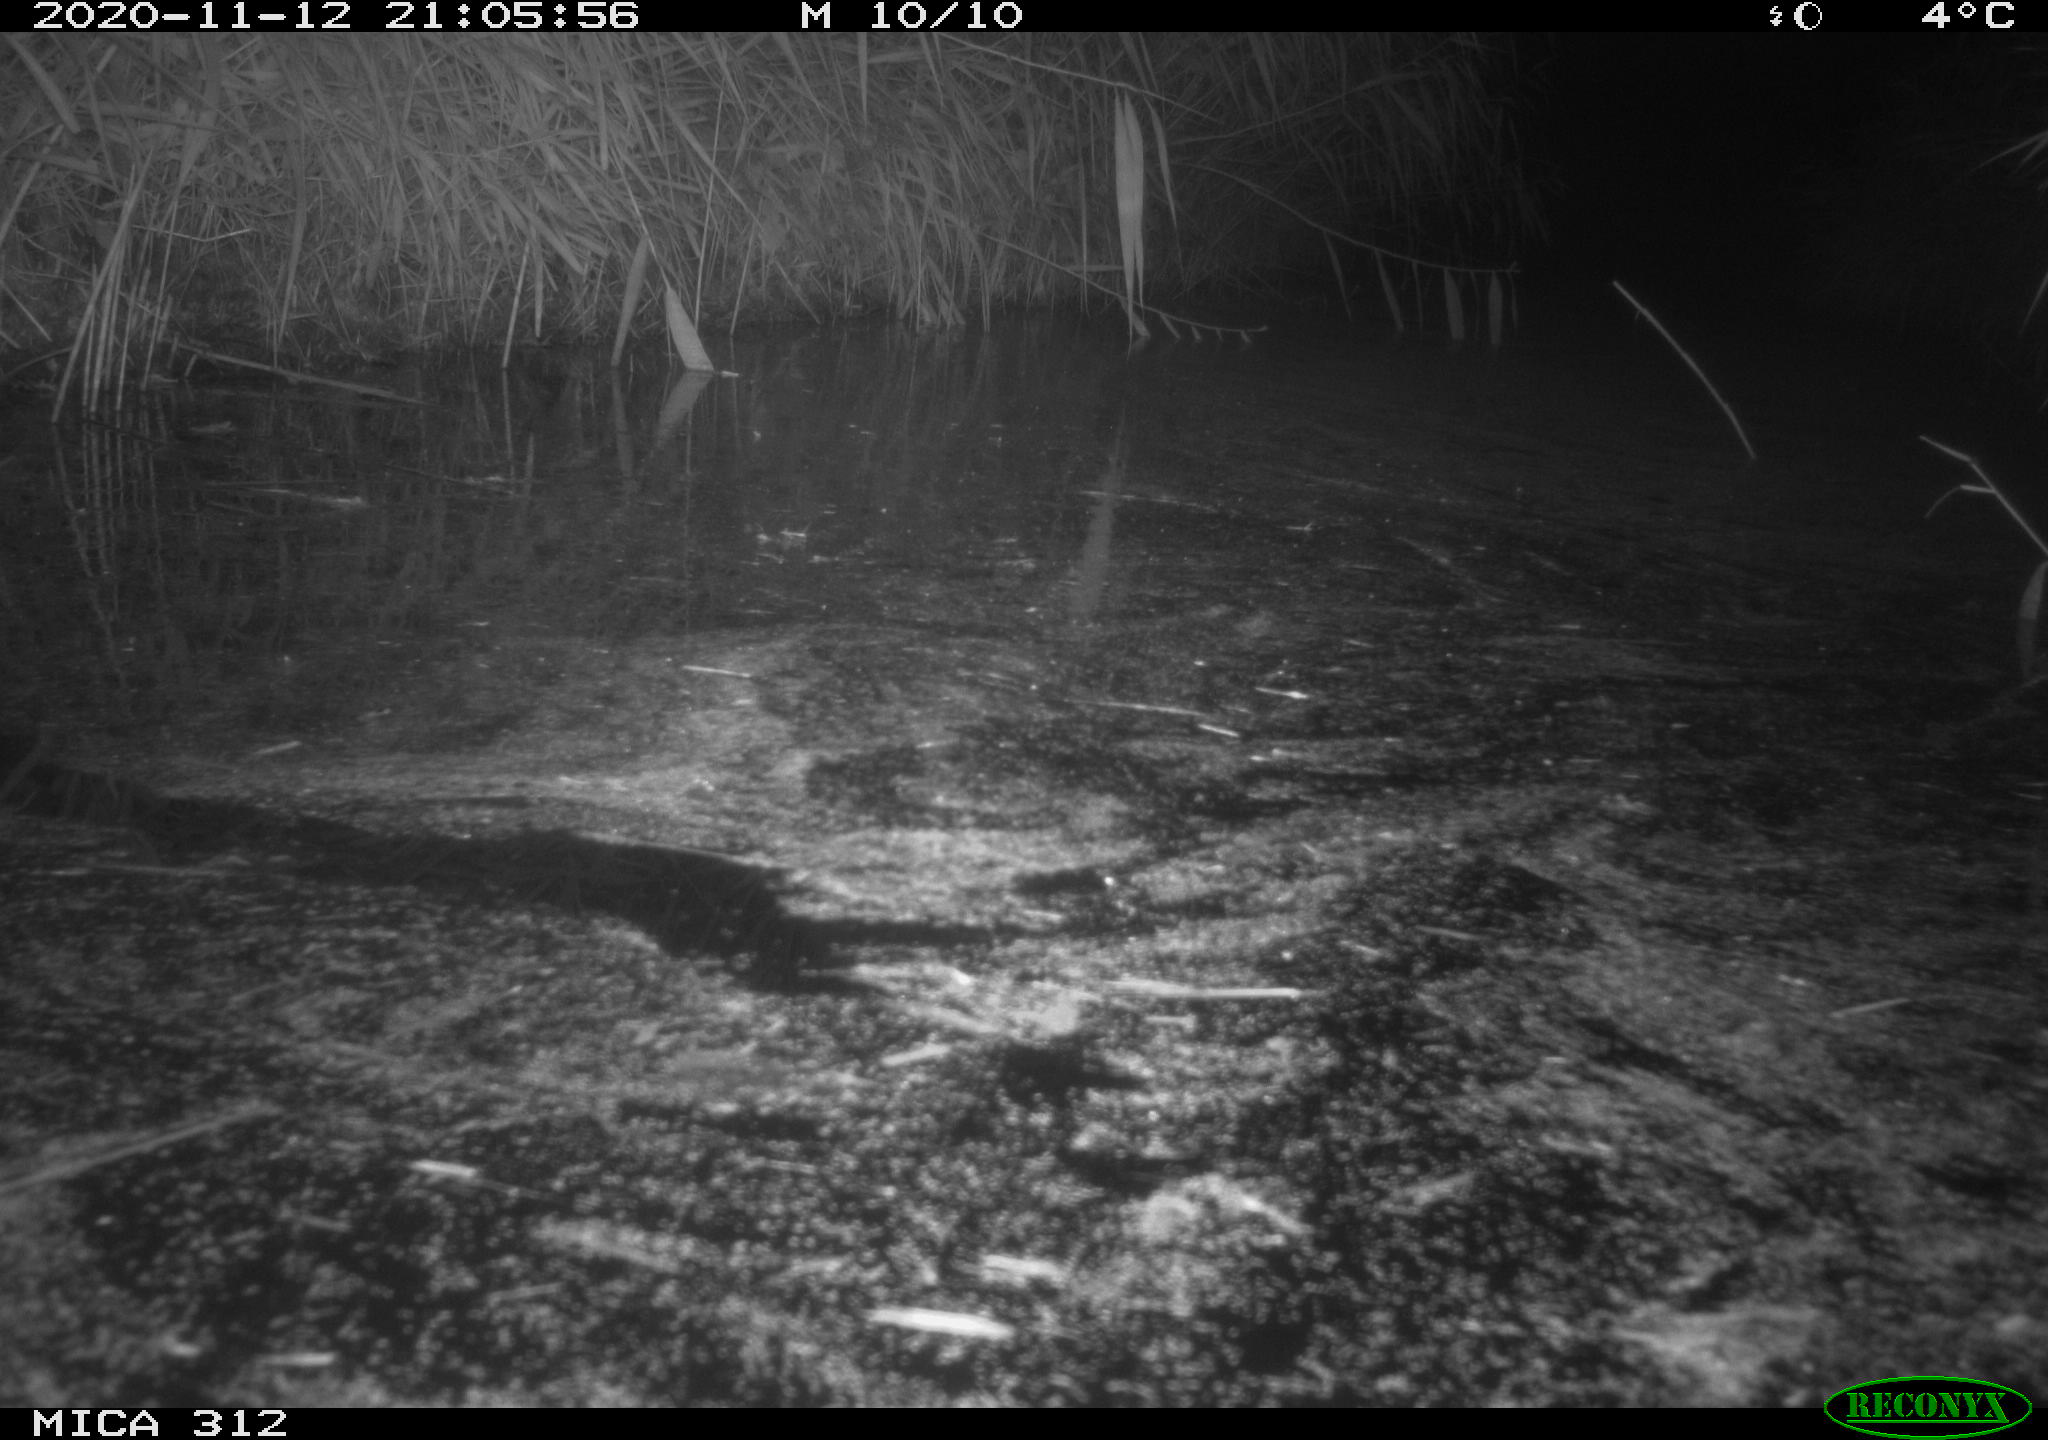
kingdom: Animalia
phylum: Chordata
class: Mammalia
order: Rodentia
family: Muridae
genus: Rattus
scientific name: Rattus norvegicus
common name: Brown rat
